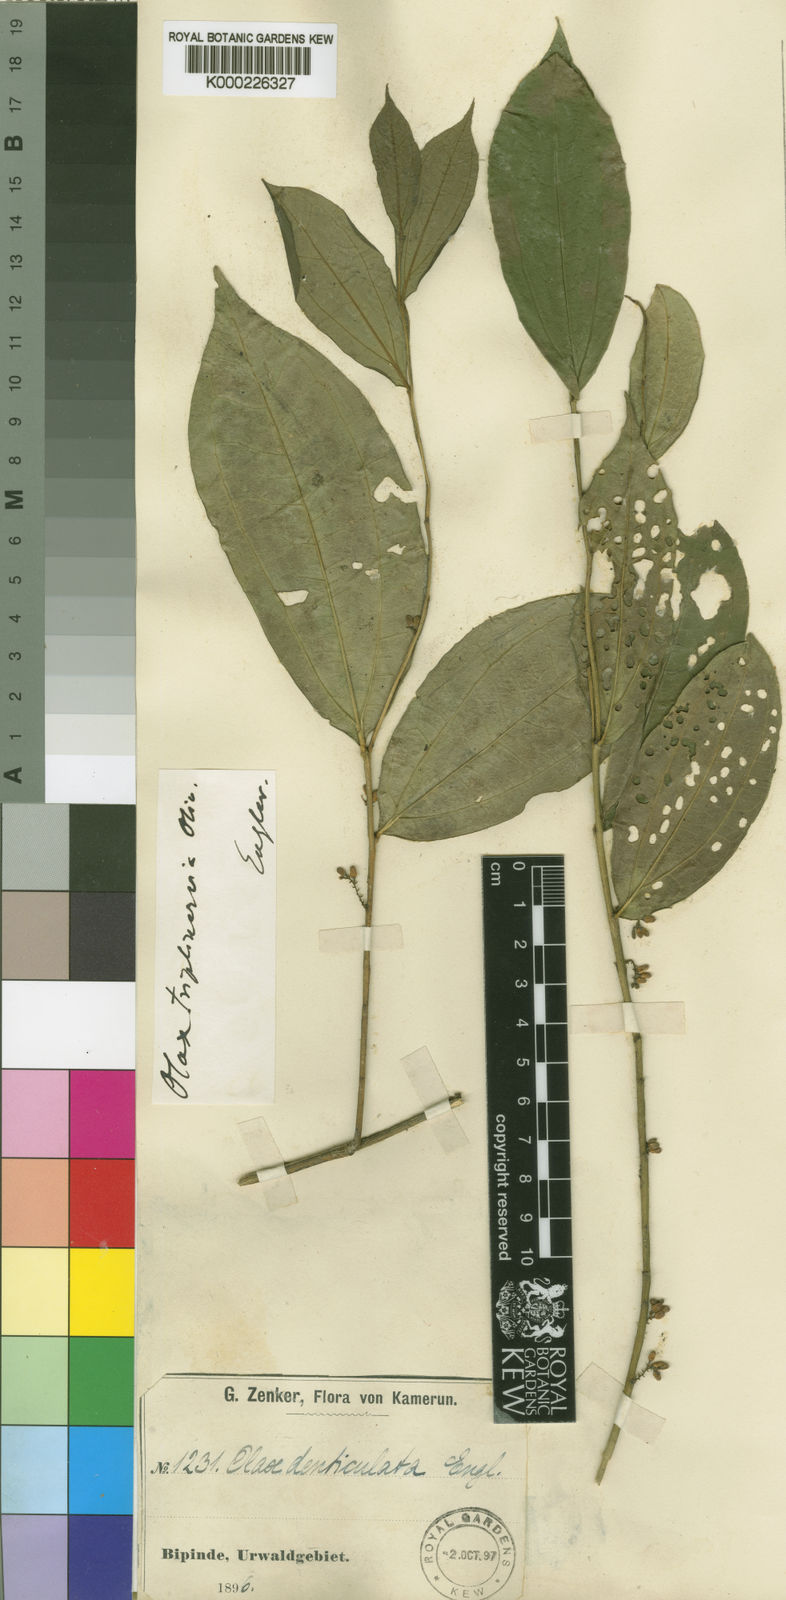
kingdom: Plantae
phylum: Tracheophyta
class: Magnoliopsida
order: Santalales
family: Olacaceae
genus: Olax
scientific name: Olax triplinervia
